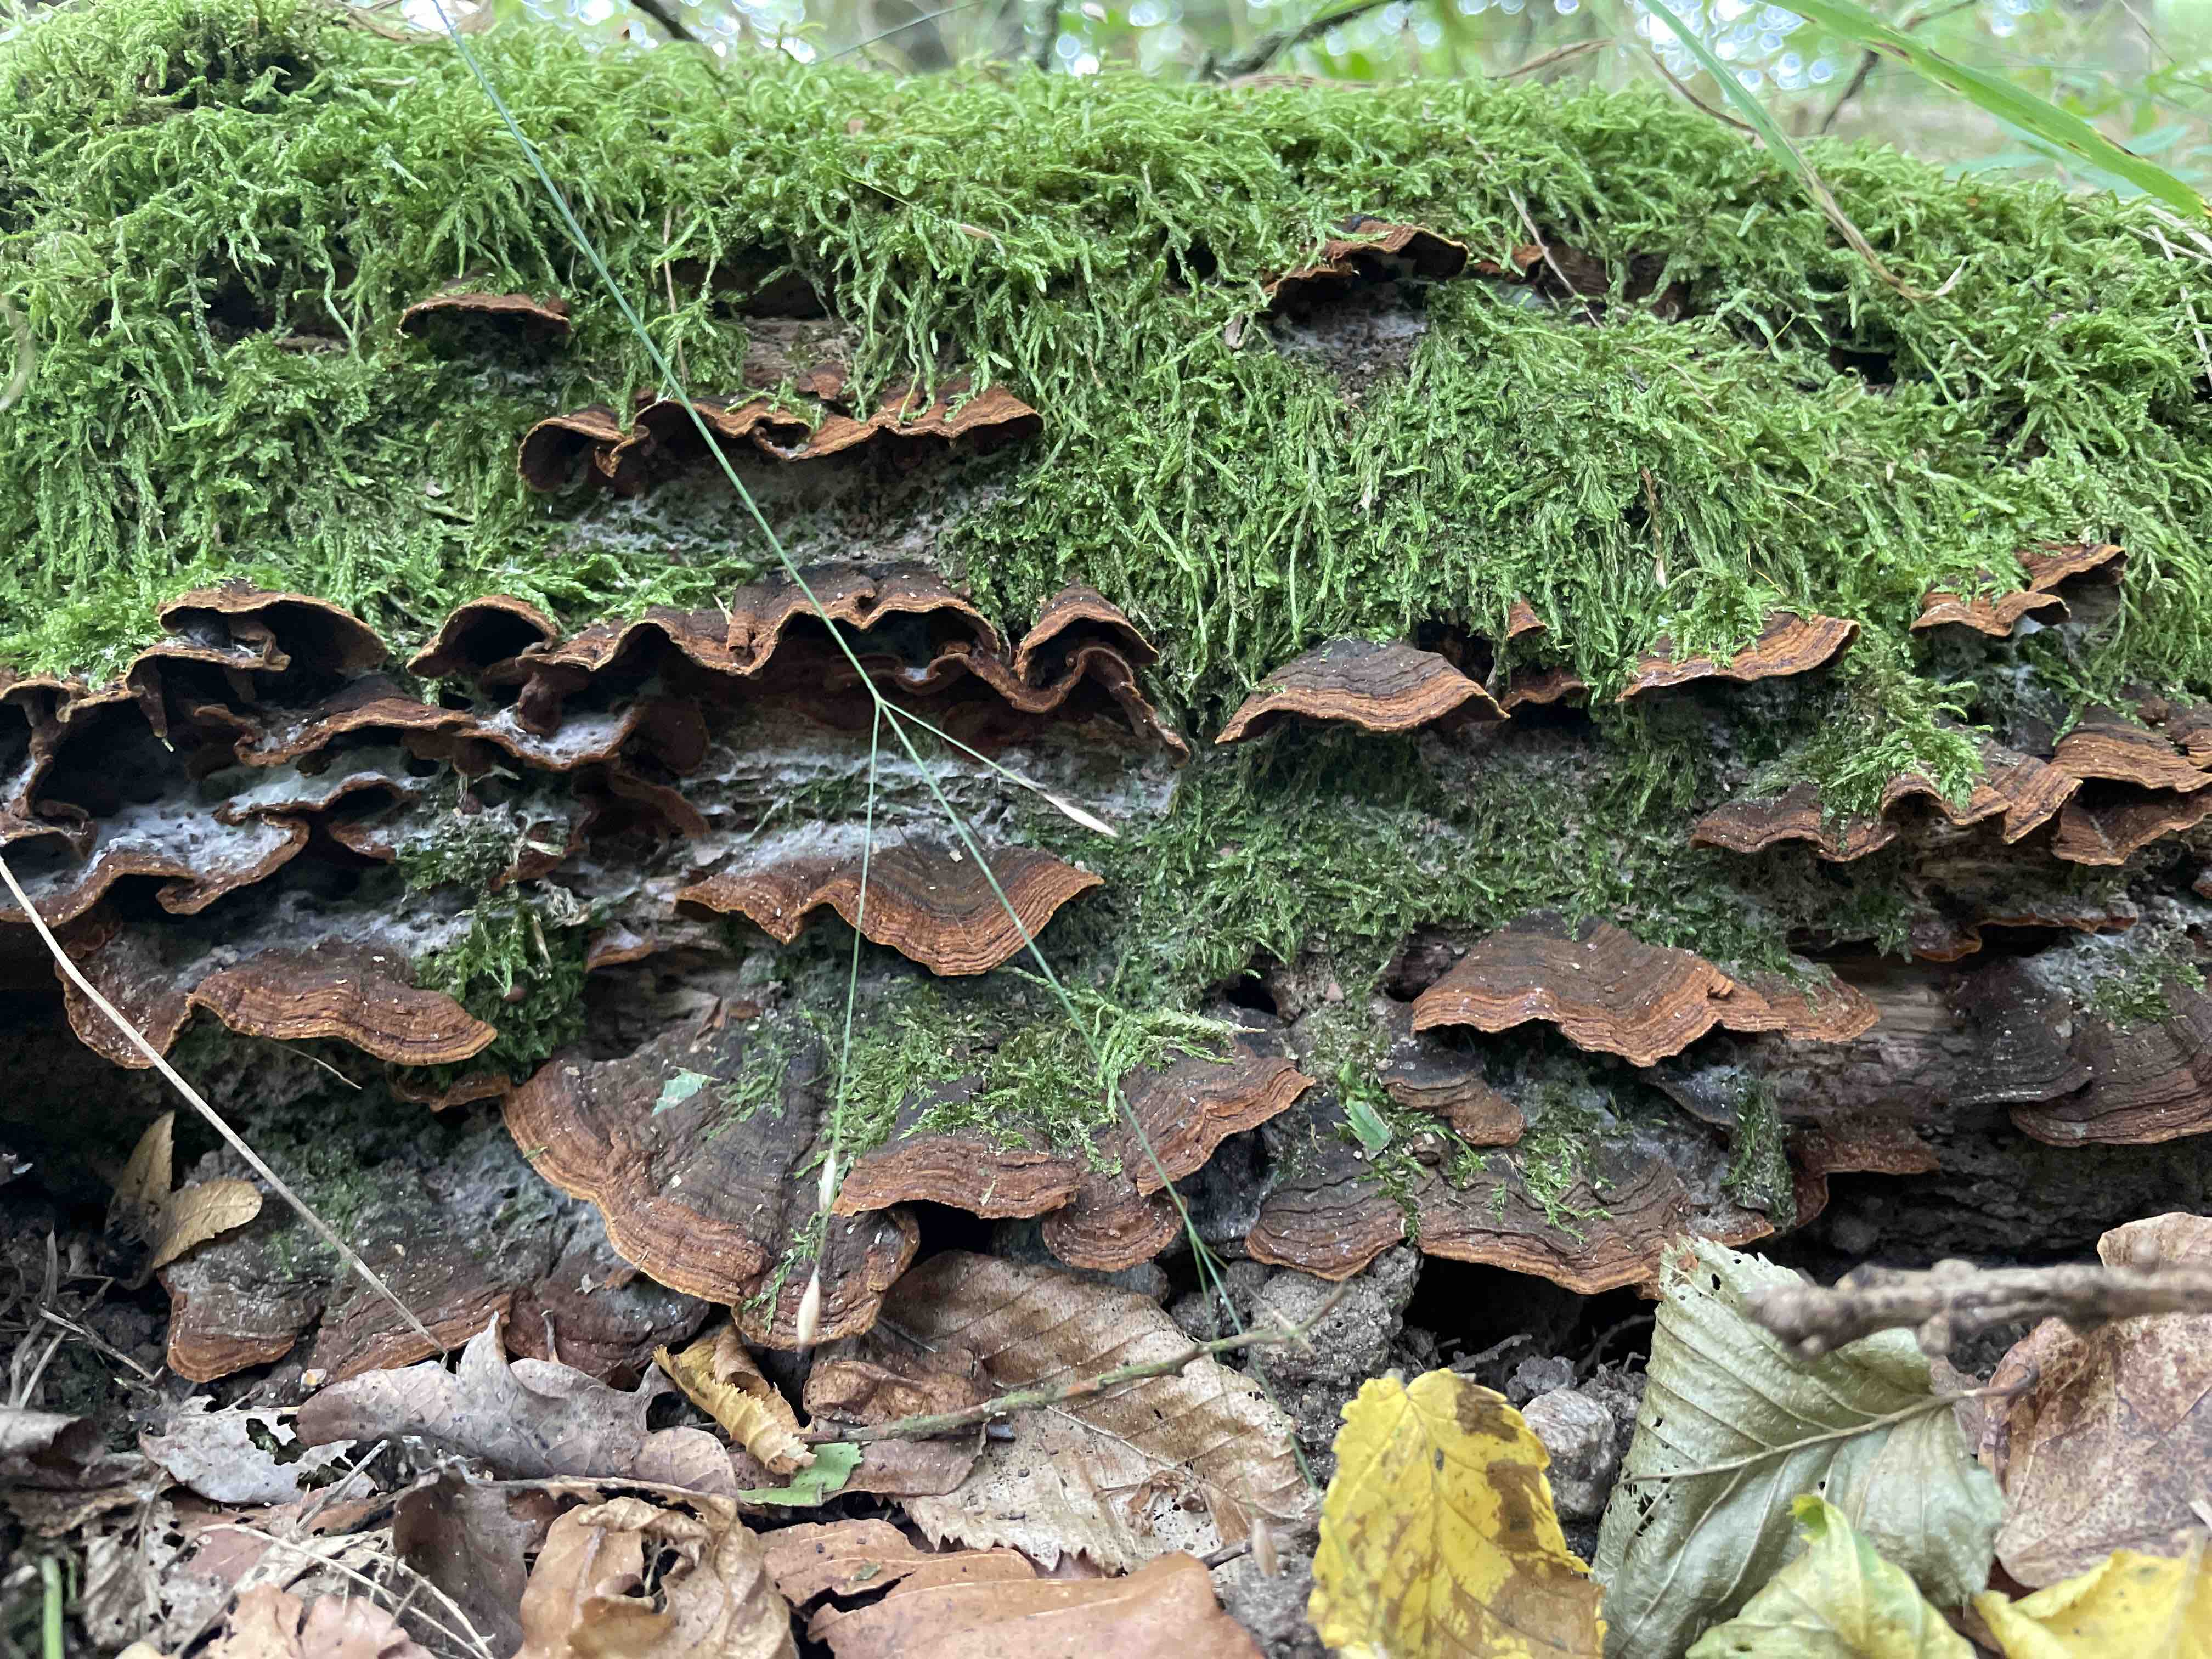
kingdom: Fungi
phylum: Basidiomycota
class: Agaricomycetes
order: Hymenochaetales
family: Hymenochaetaceae
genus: Hymenochaete
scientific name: Hymenochaete rubiginosa
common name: stiv ruslædersvamp
